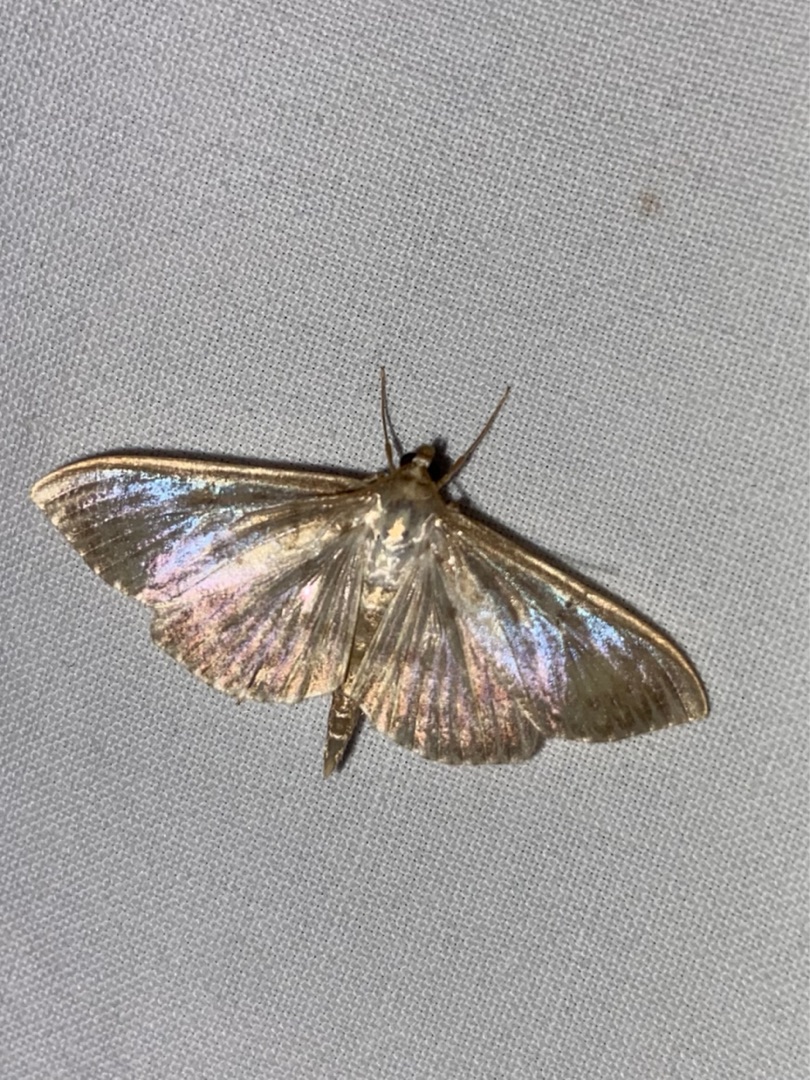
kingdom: Animalia
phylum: Arthropoda
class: Insecta
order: Lepidoptera
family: Crambidae
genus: Patania
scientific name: Patania ruralis
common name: Perlemorshalvmøl
